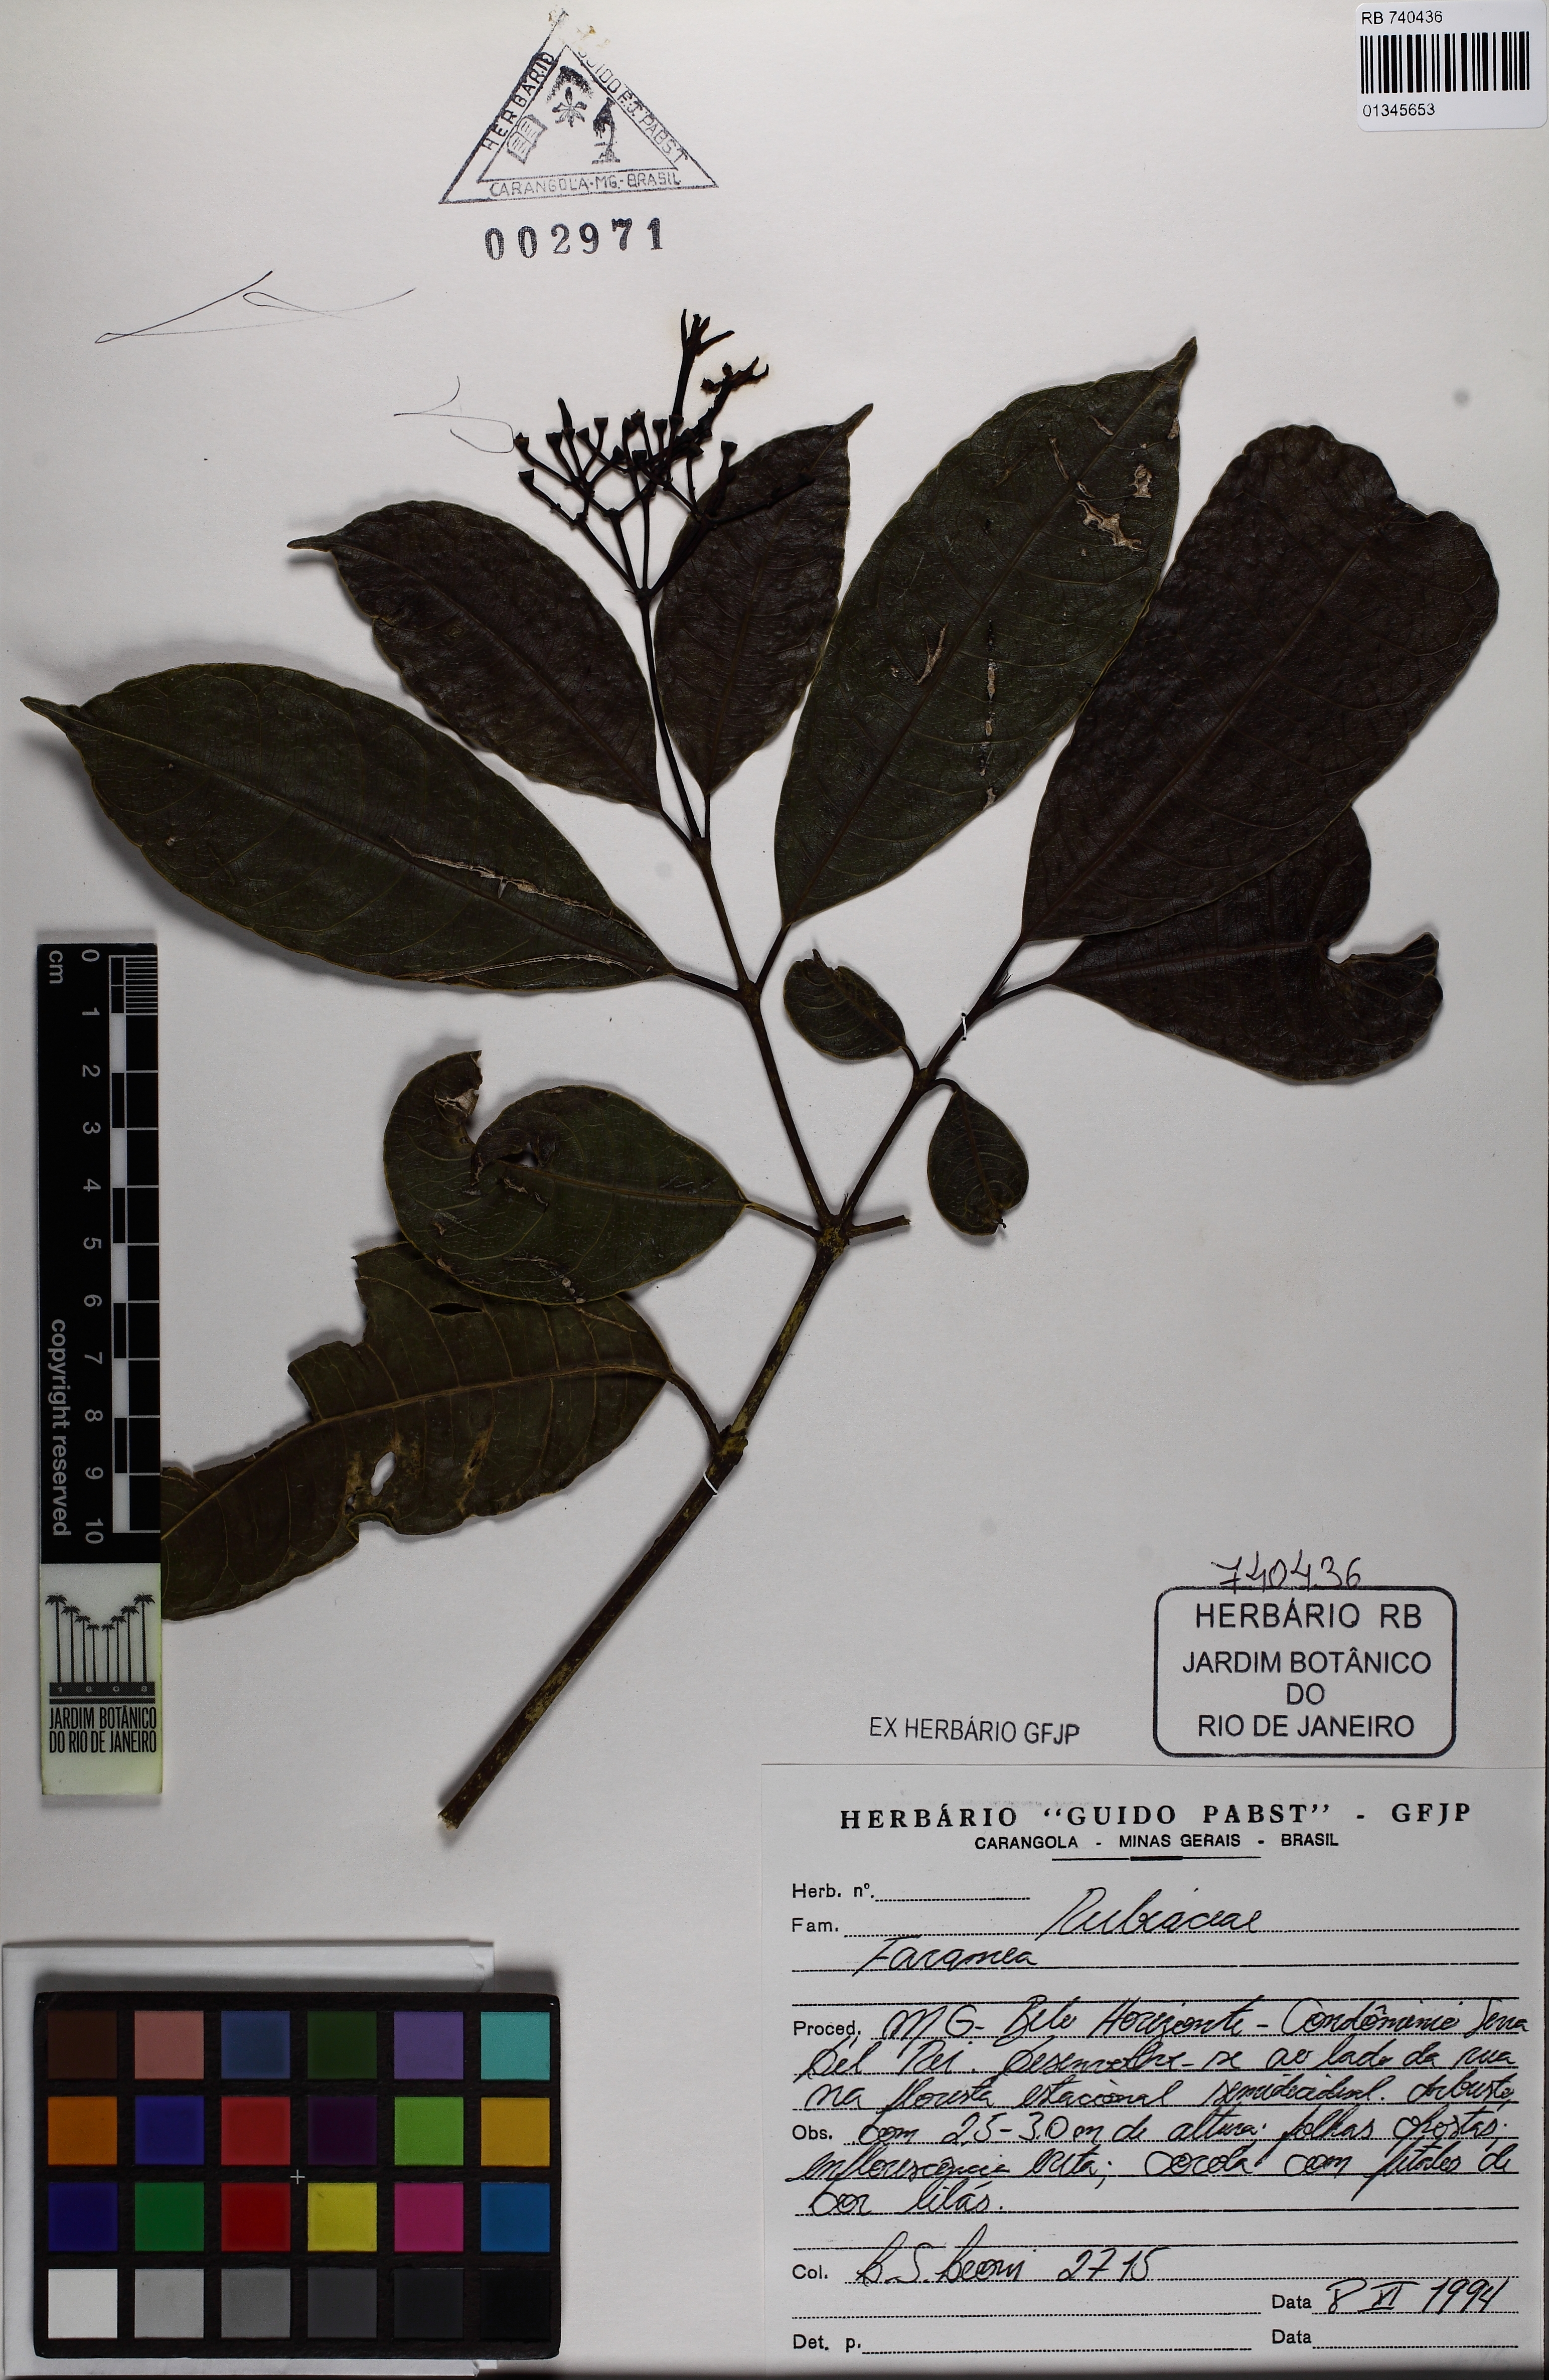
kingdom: Plantae
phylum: Tracheophyta
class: Magnoliopsida
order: Gentianales
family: Rubiaceae
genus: Faramea
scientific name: Faramea latifolia
